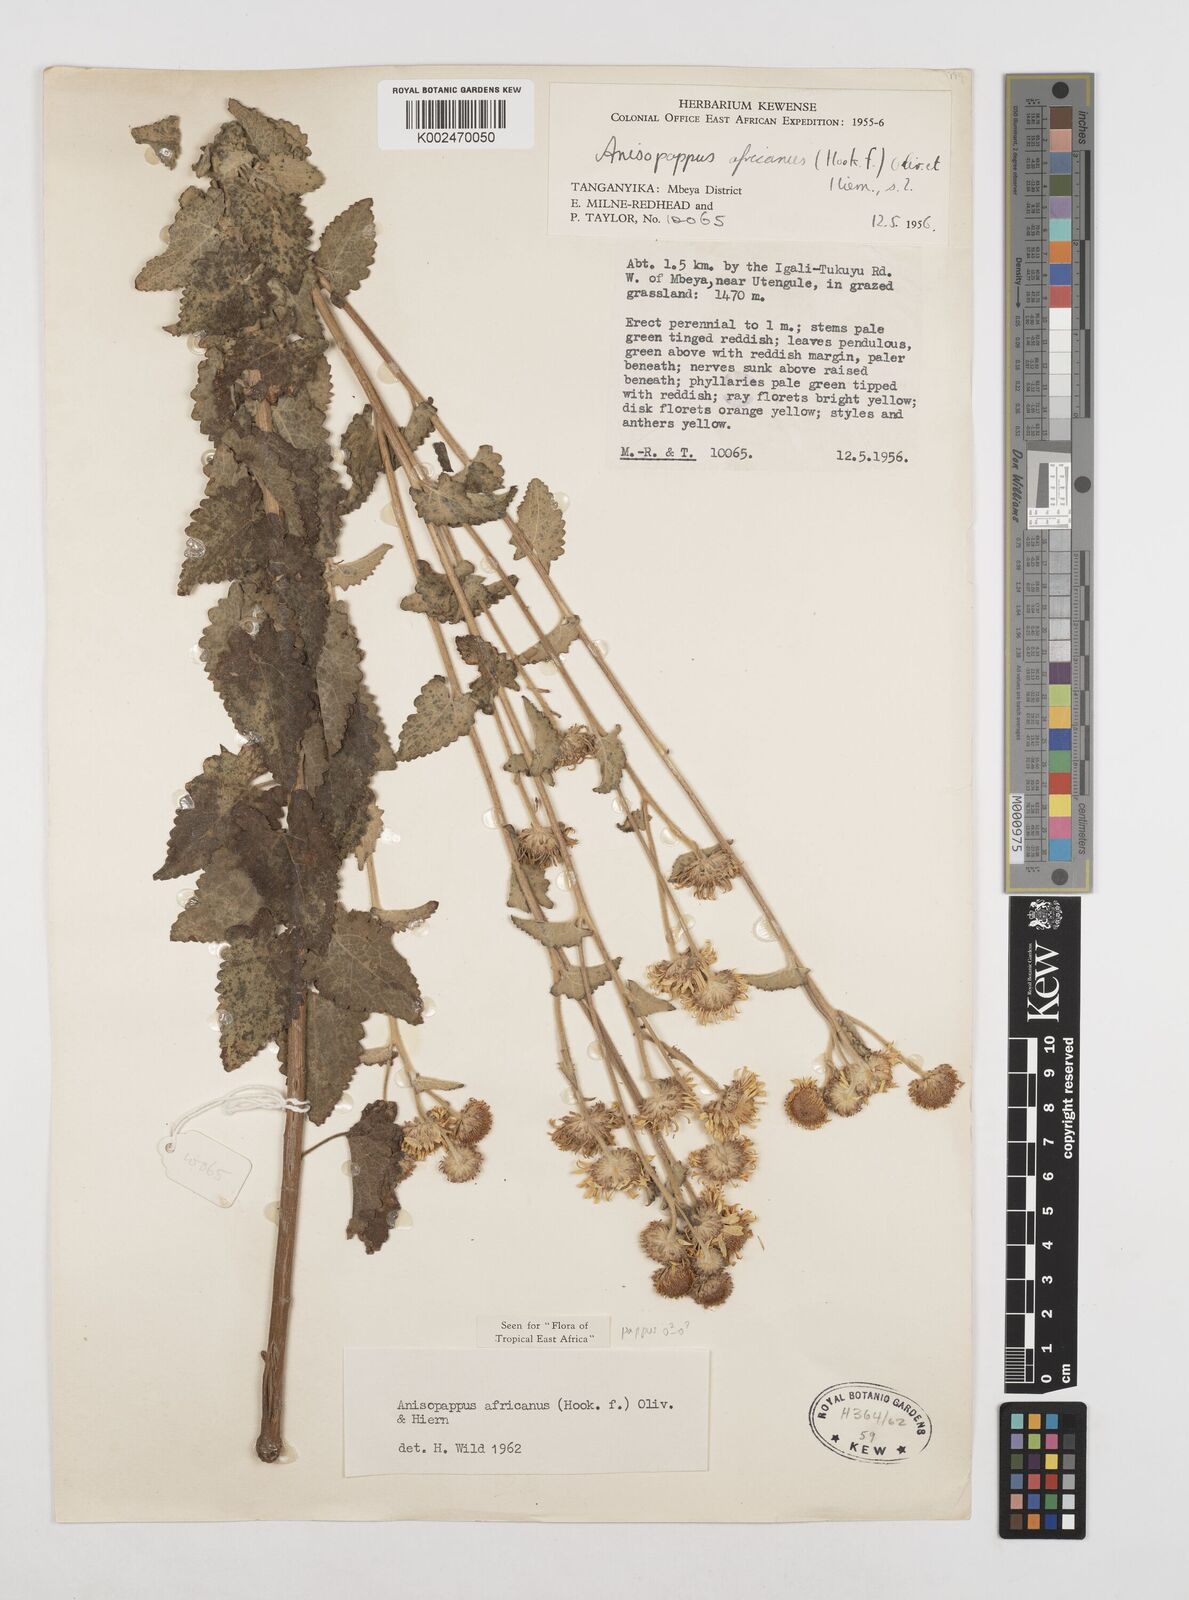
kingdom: Plantae
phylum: Tracheophyta
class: Magnoliopsida
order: Asterales
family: Asteraceae
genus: Anisopappus
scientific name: Anisopappus buchwaldii
